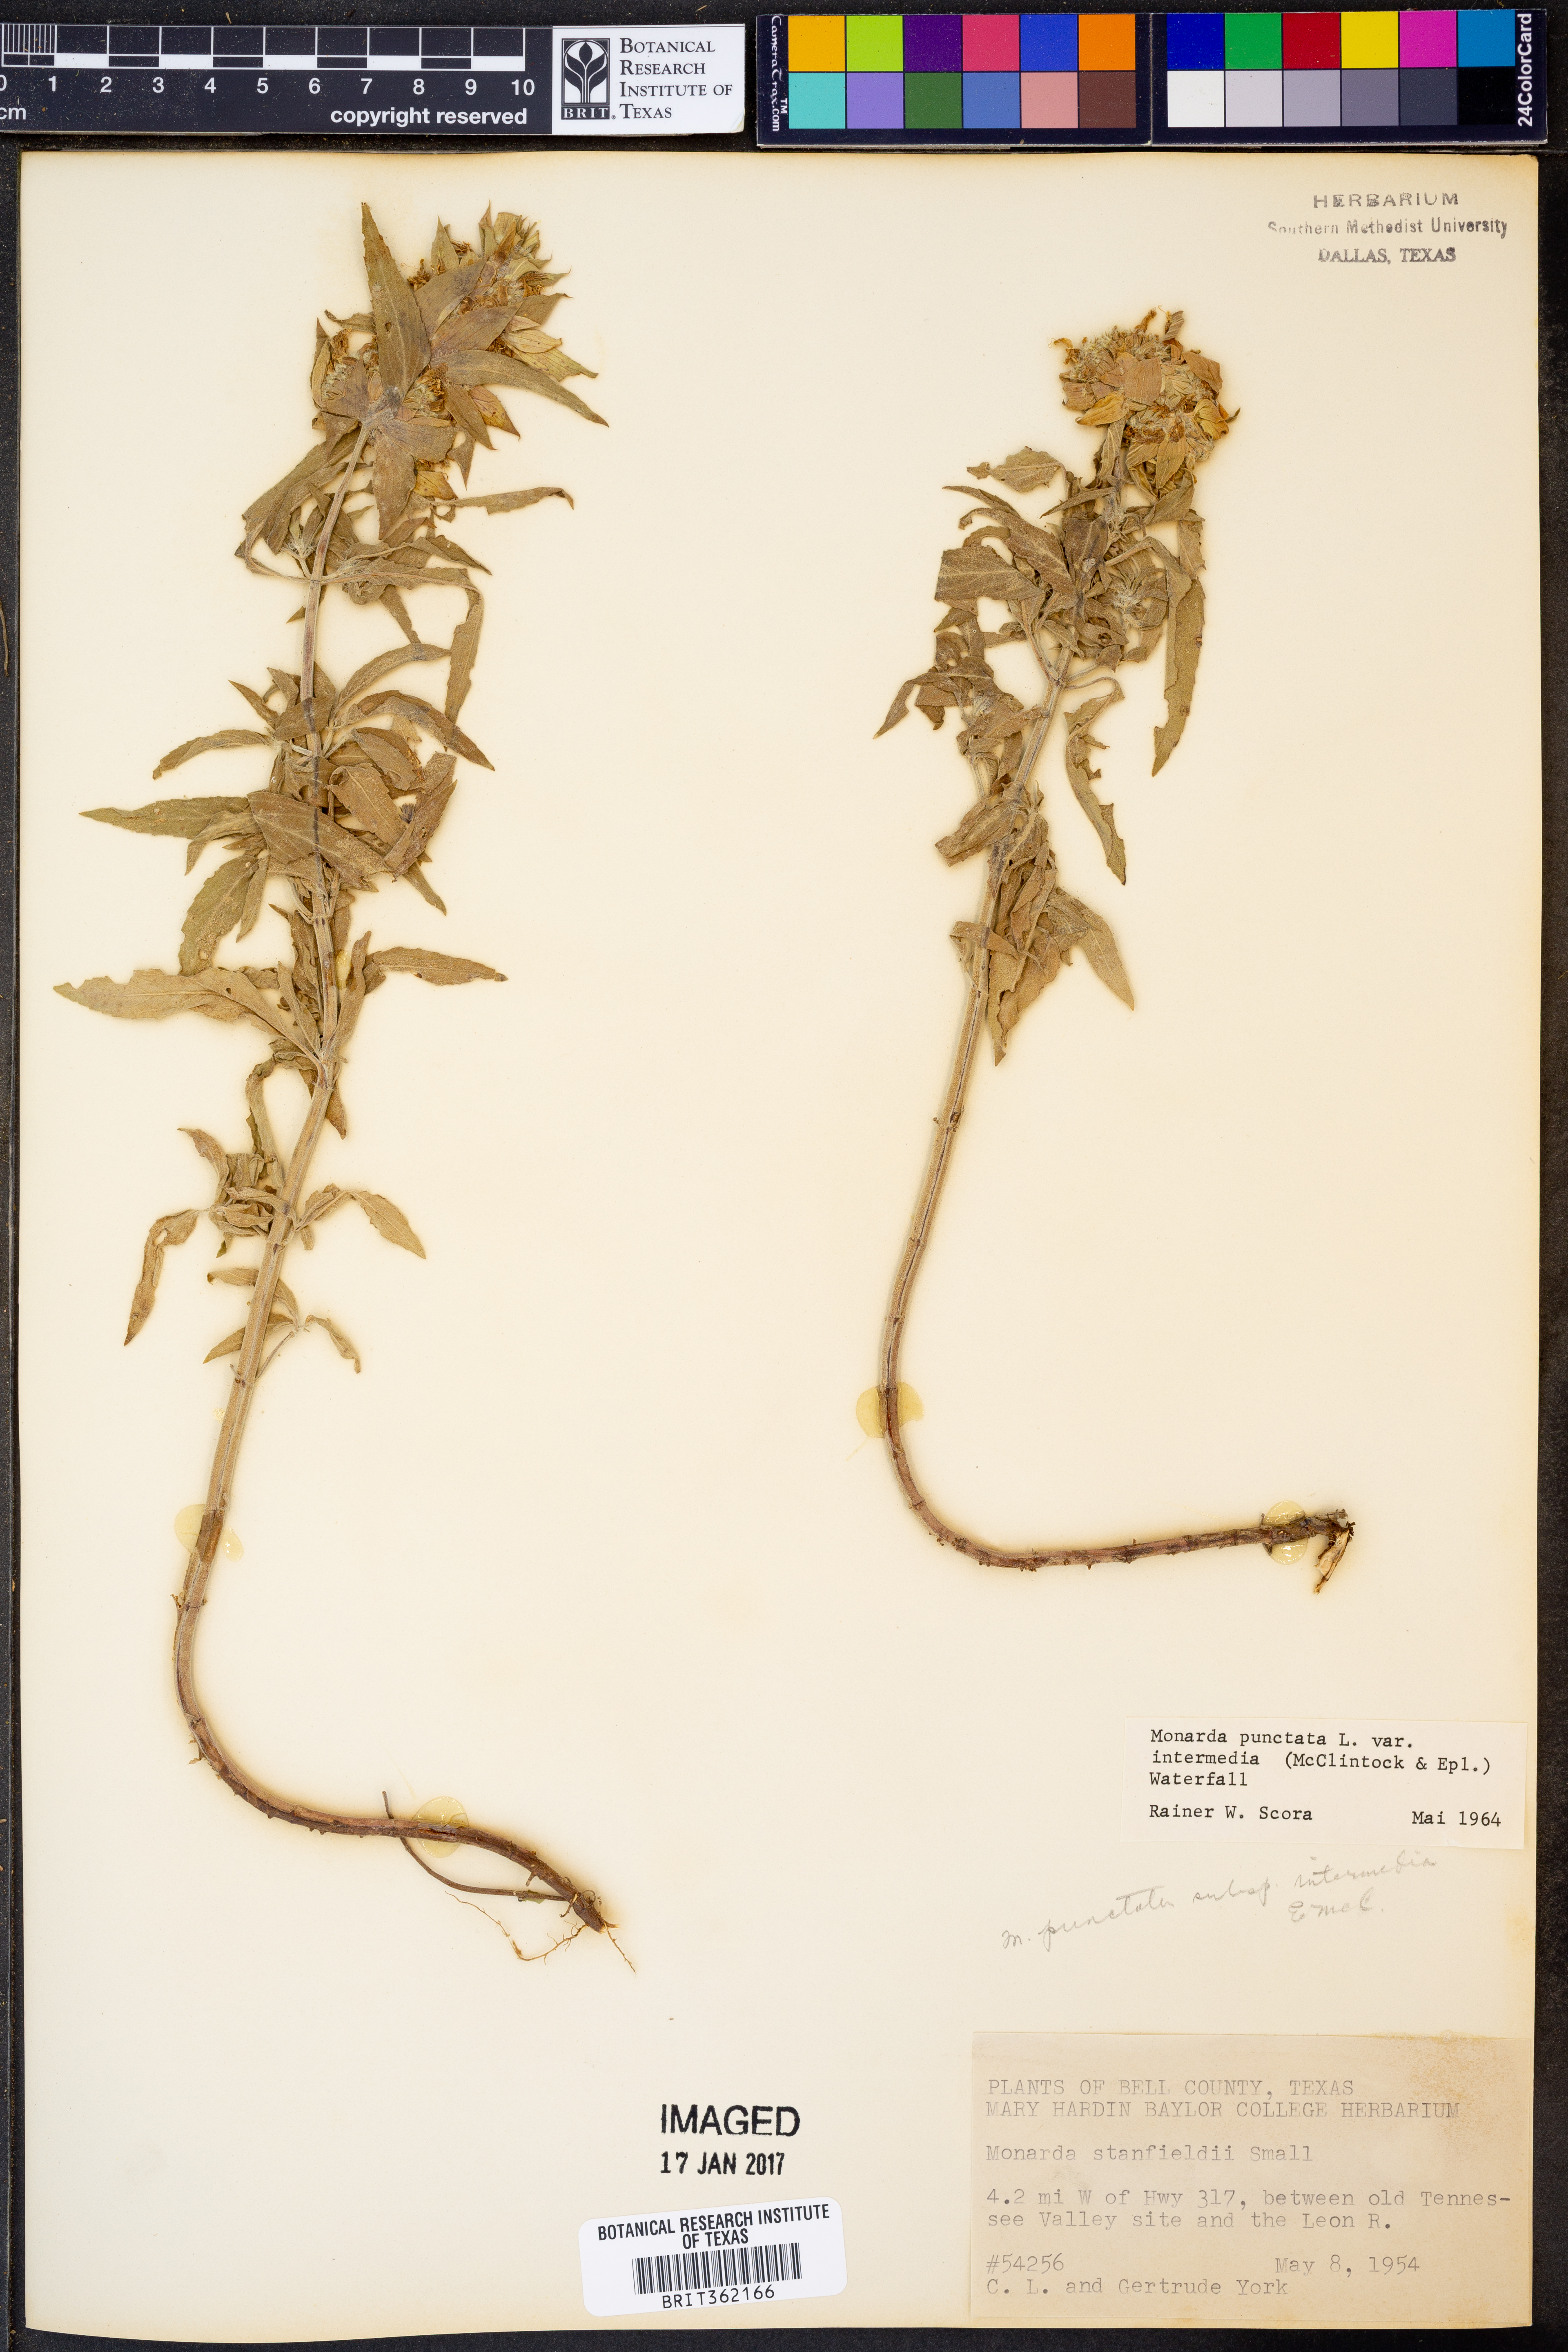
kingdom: Plantae
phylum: Tracheophyta
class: Magnoliopsida
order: Lamiales
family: Lamiaceae
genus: Monarda
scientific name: Monarda punctata
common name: Dotted monarda
